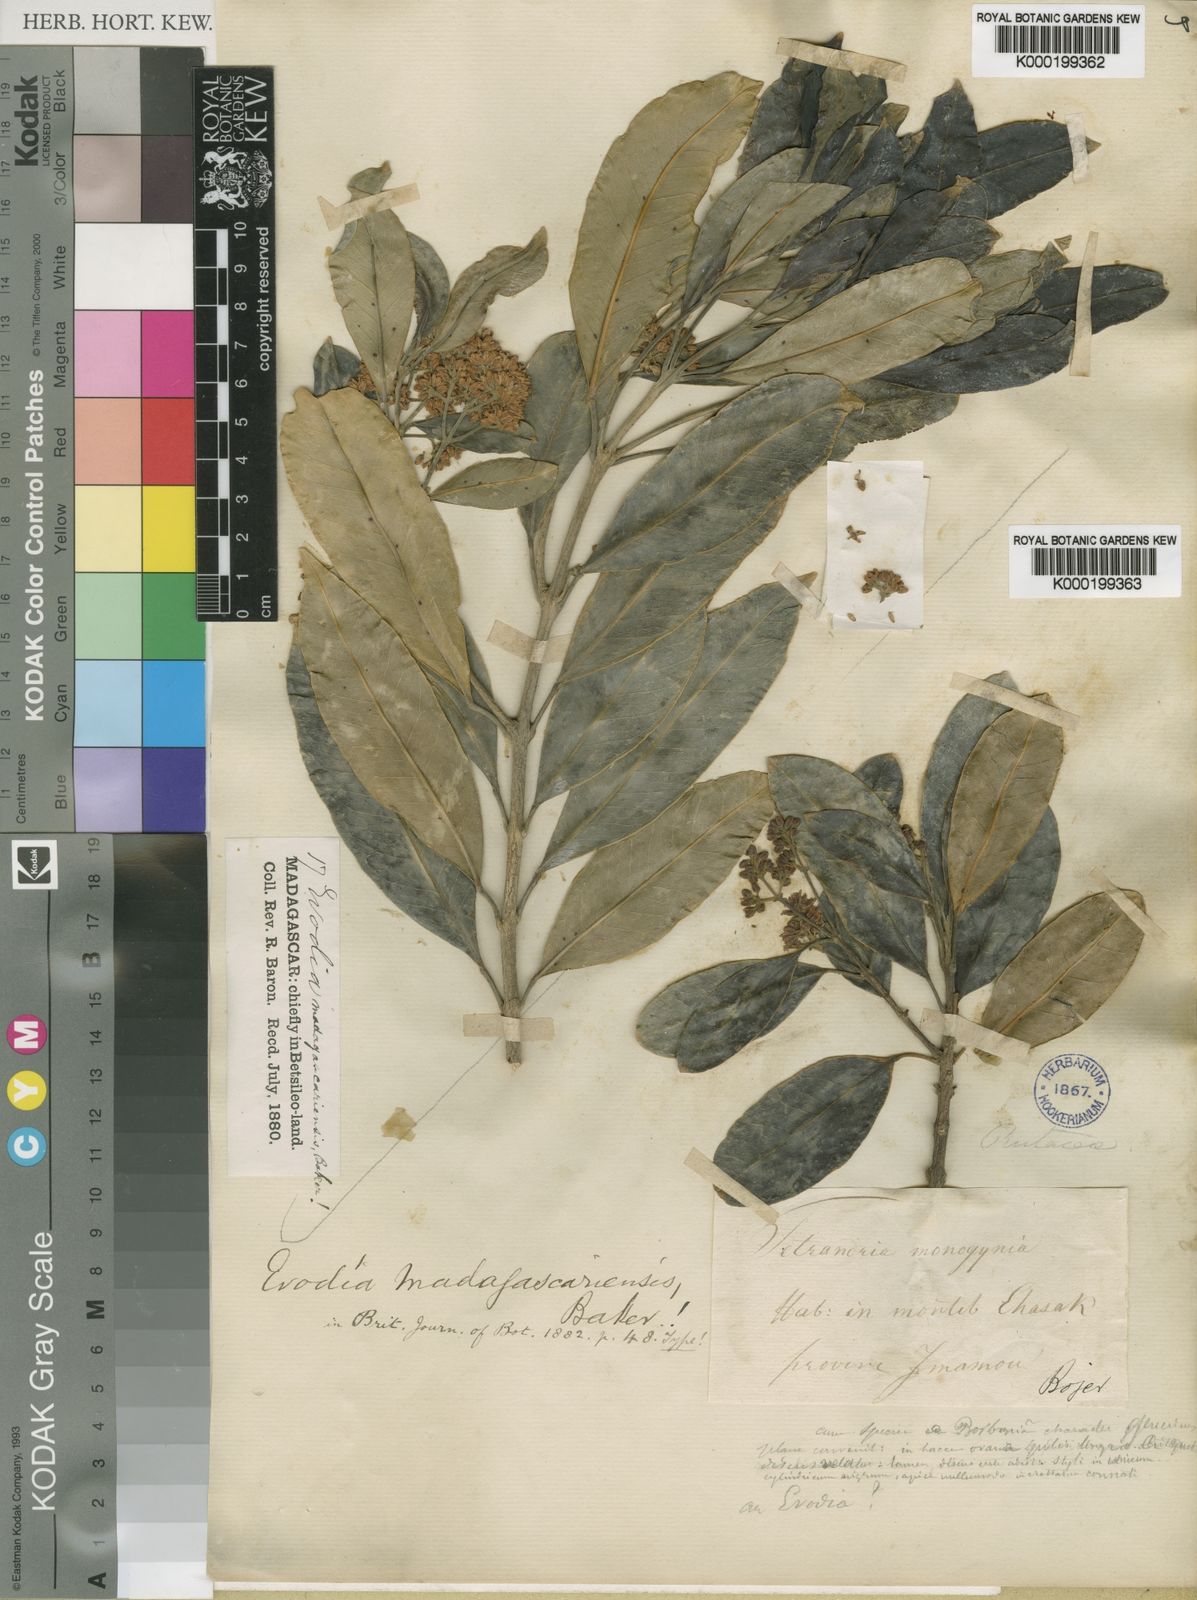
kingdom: Plantae
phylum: Tracheophyta
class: Magnoliopsida
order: Sapindales
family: Rutaceae
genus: Melicope
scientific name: Melicope madagascariensis
